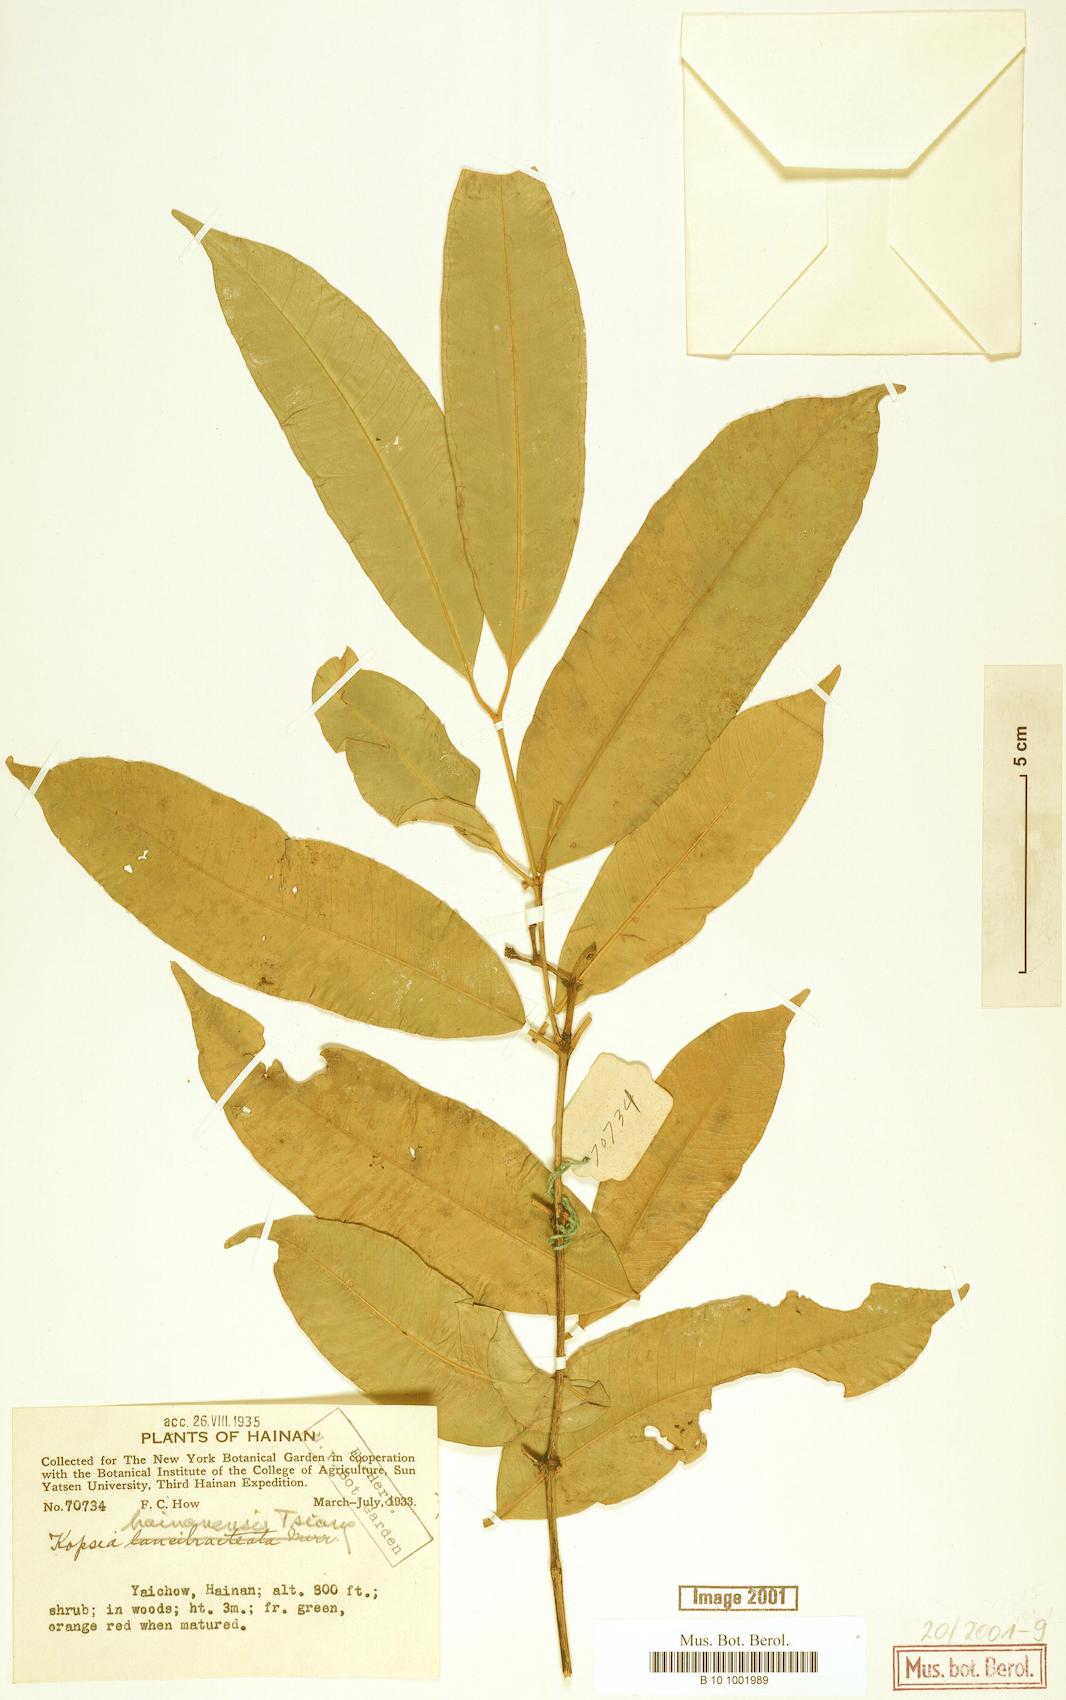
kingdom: Plantae
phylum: Tracheophyta
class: Magnoliopsida
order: Gentianales
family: Apocynaceae
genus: Kopsia
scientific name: Kopsia hainanensis
